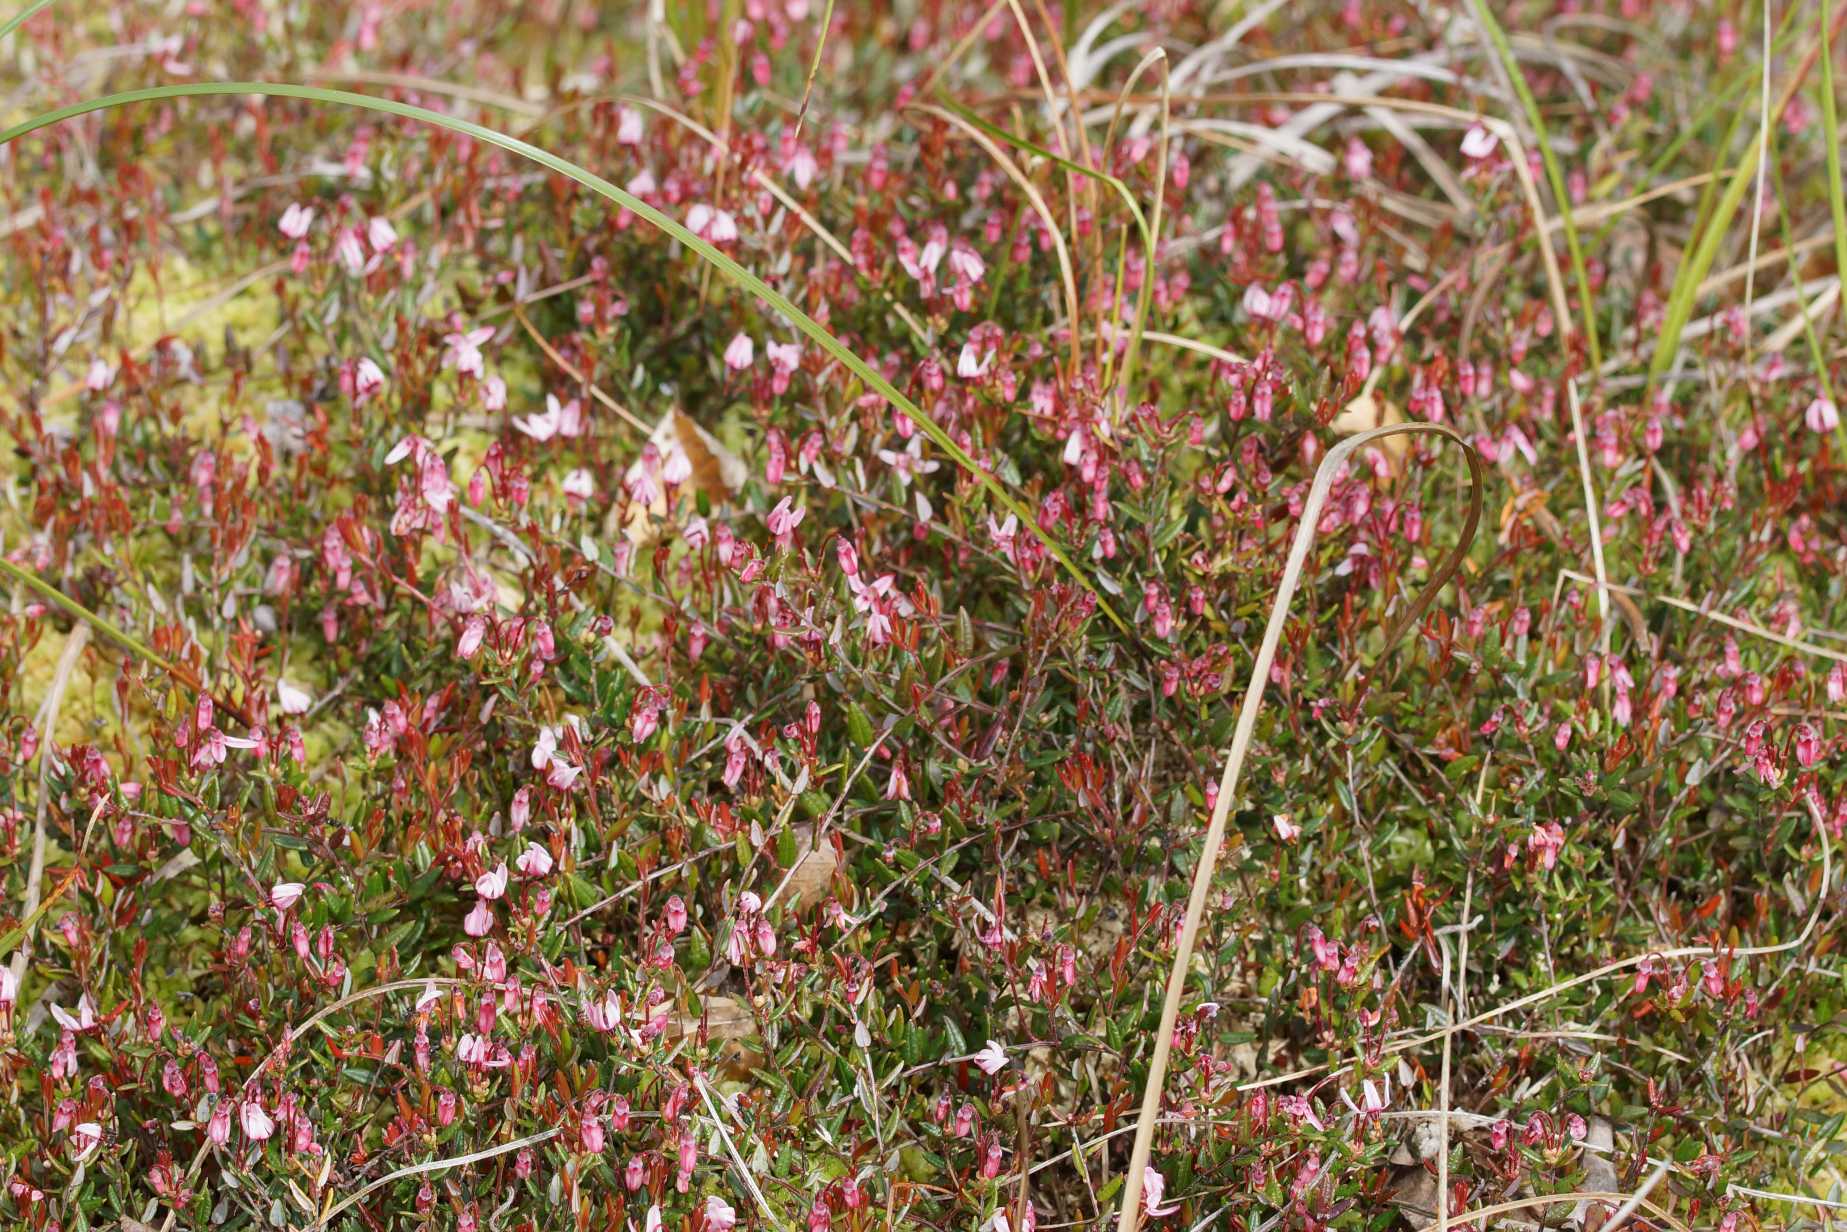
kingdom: Plantae
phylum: Tracheophyta
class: Magnoliopsida
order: Ericales
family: Ericaceae
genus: Vaccinium
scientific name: Vaccinium oxycoccos
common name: Tranebær
